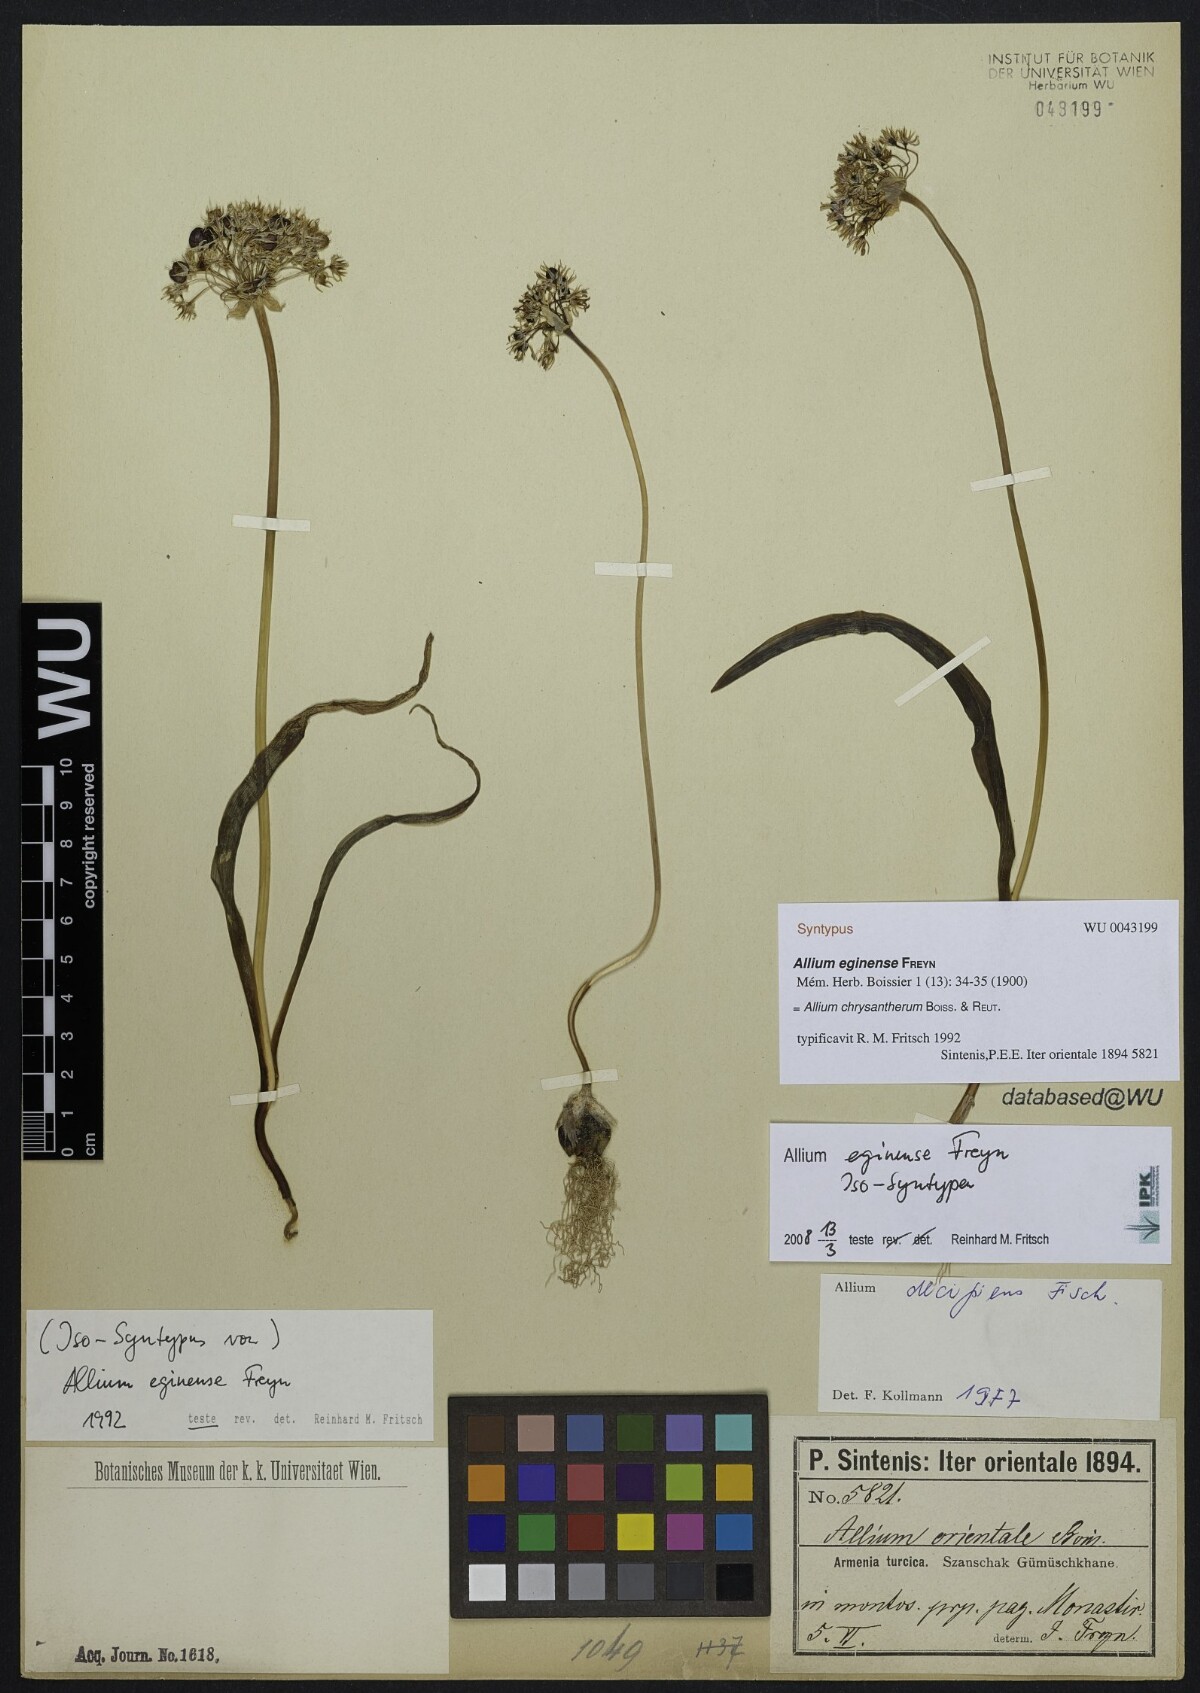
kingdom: Plantae
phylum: Tracheophyta
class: Liliopsida
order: Asparagales
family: Amaryllidaceae
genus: Allium
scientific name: Allium chrysantherum
